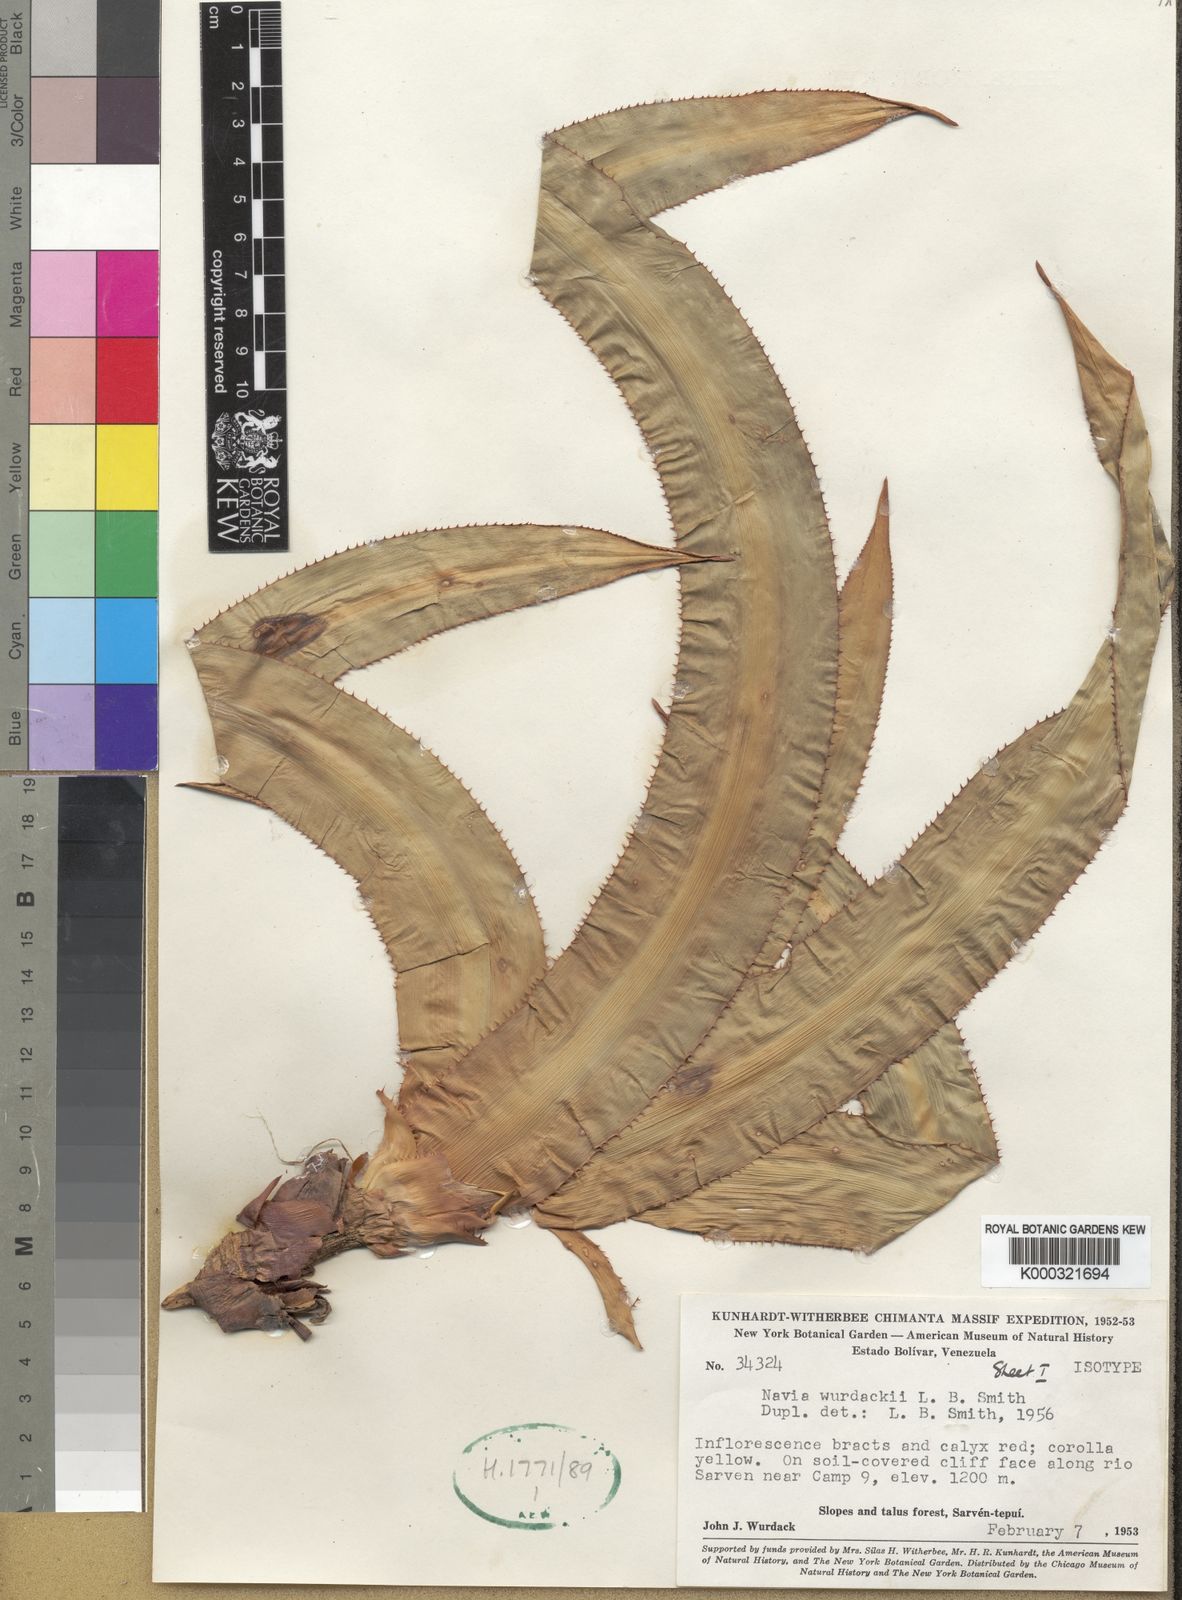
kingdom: Plantae
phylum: Tracheophyta
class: Liliopsida
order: Poales
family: Bromeliaceae
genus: Navia
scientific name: Navia wurdackii
